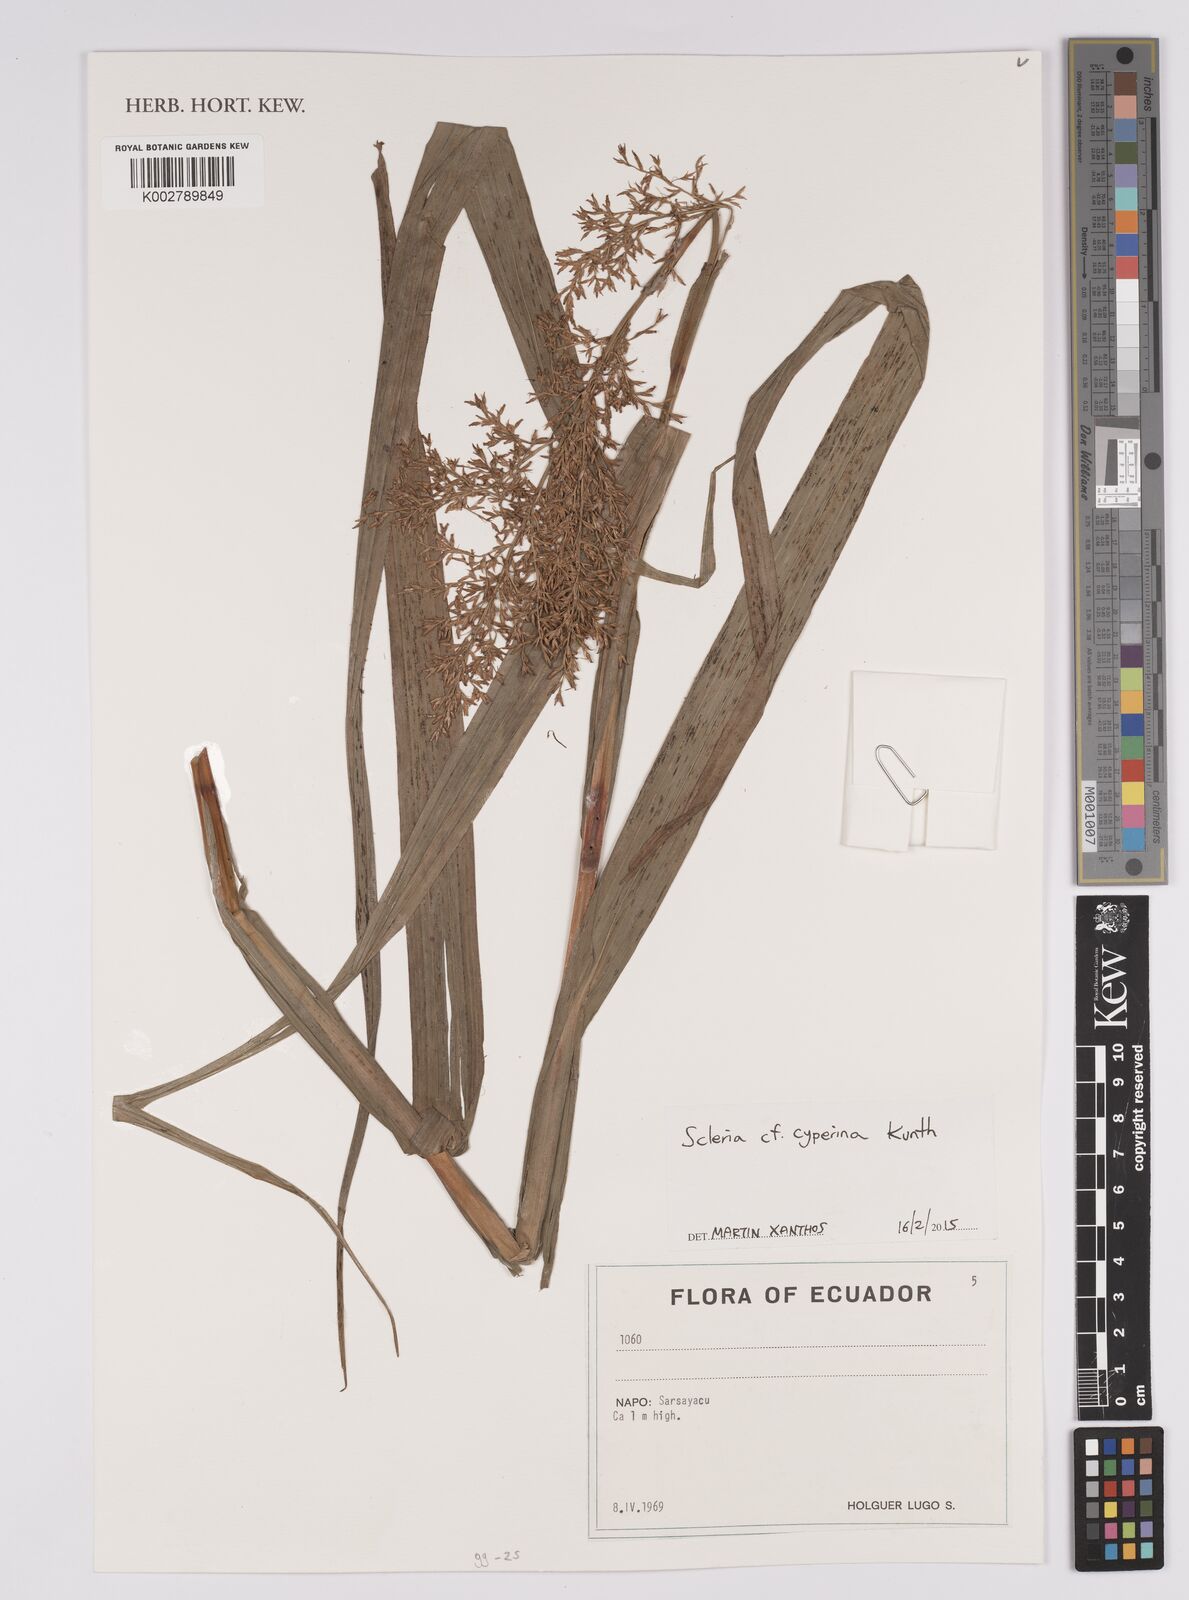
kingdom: Plantae
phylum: Tracheophyta
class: Liliopsida
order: Poales
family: Cyperaceae
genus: Scleria
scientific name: Scleria cyperina
